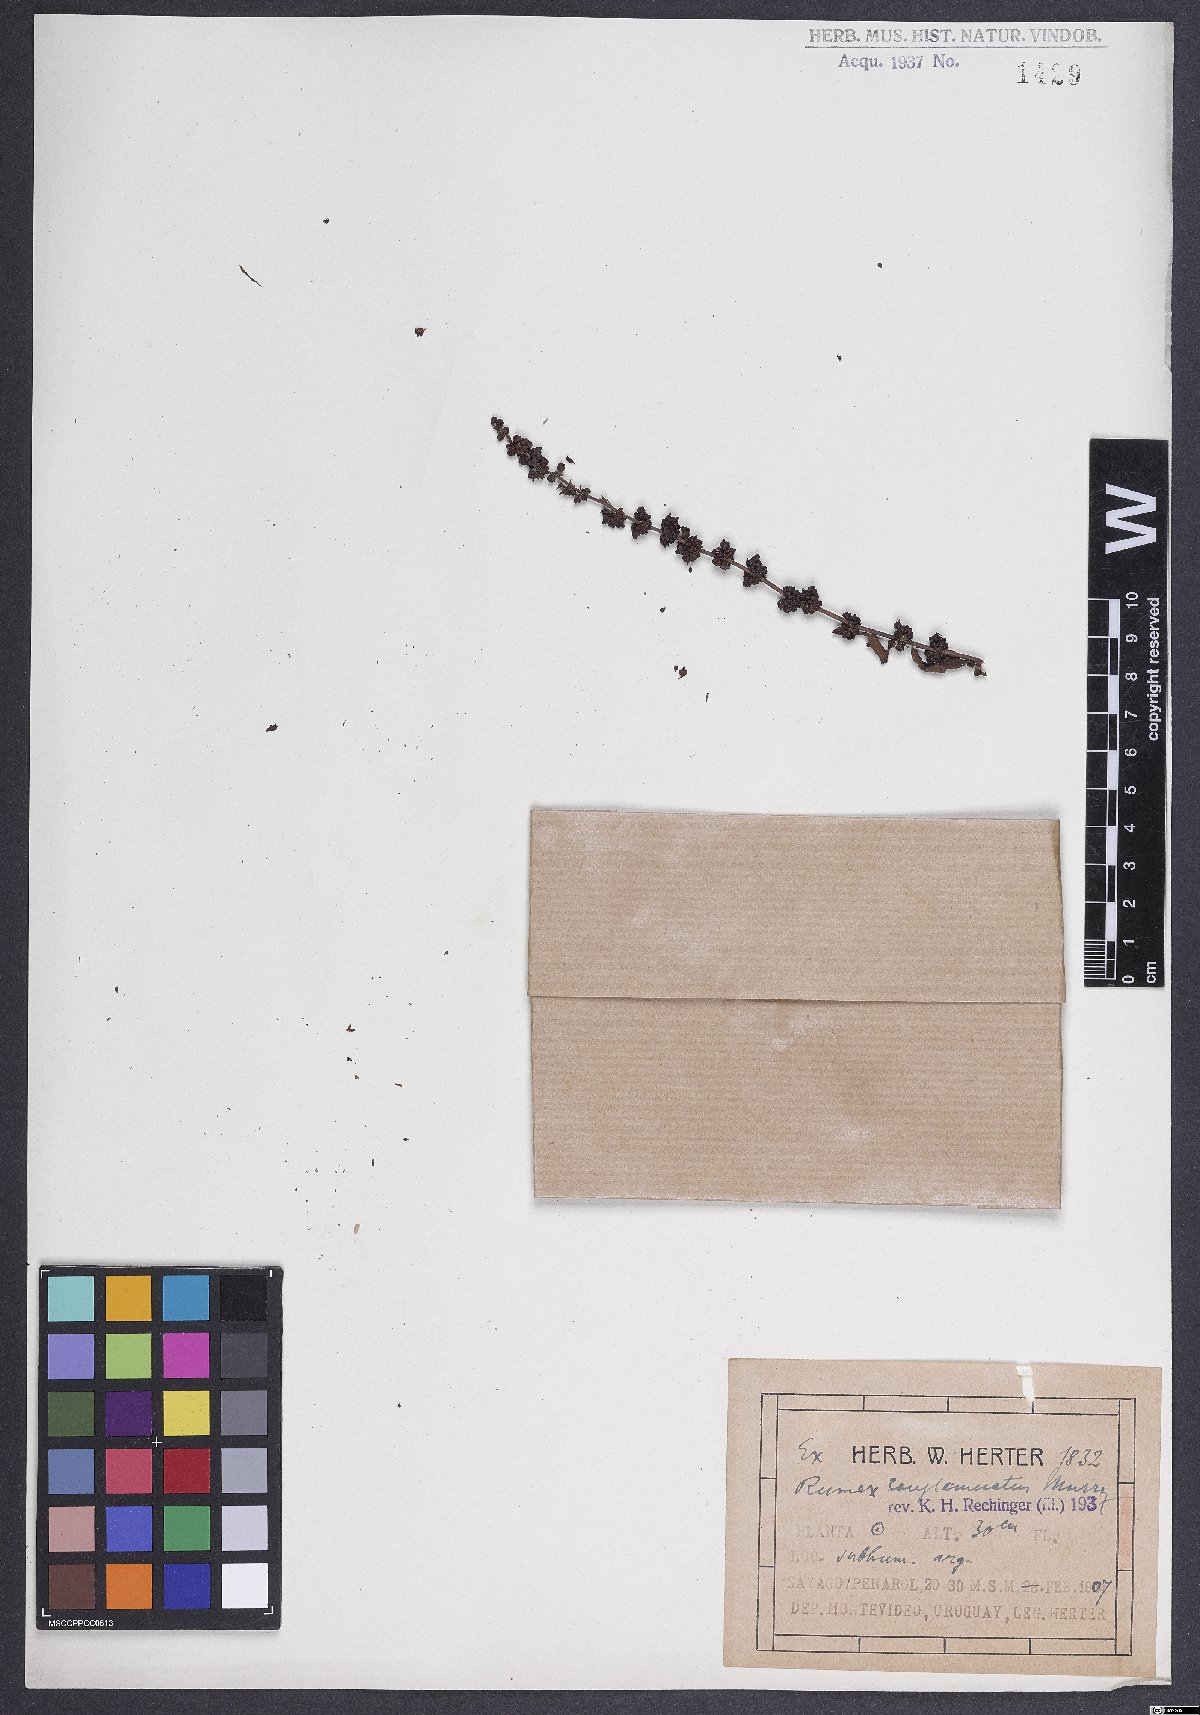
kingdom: Plantae
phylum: Tracheophyta
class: Magnoliopsida
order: Caryophyllales
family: Polygonaceae
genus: Rumex
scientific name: Rumex conglomeratus
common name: Clustered dock
